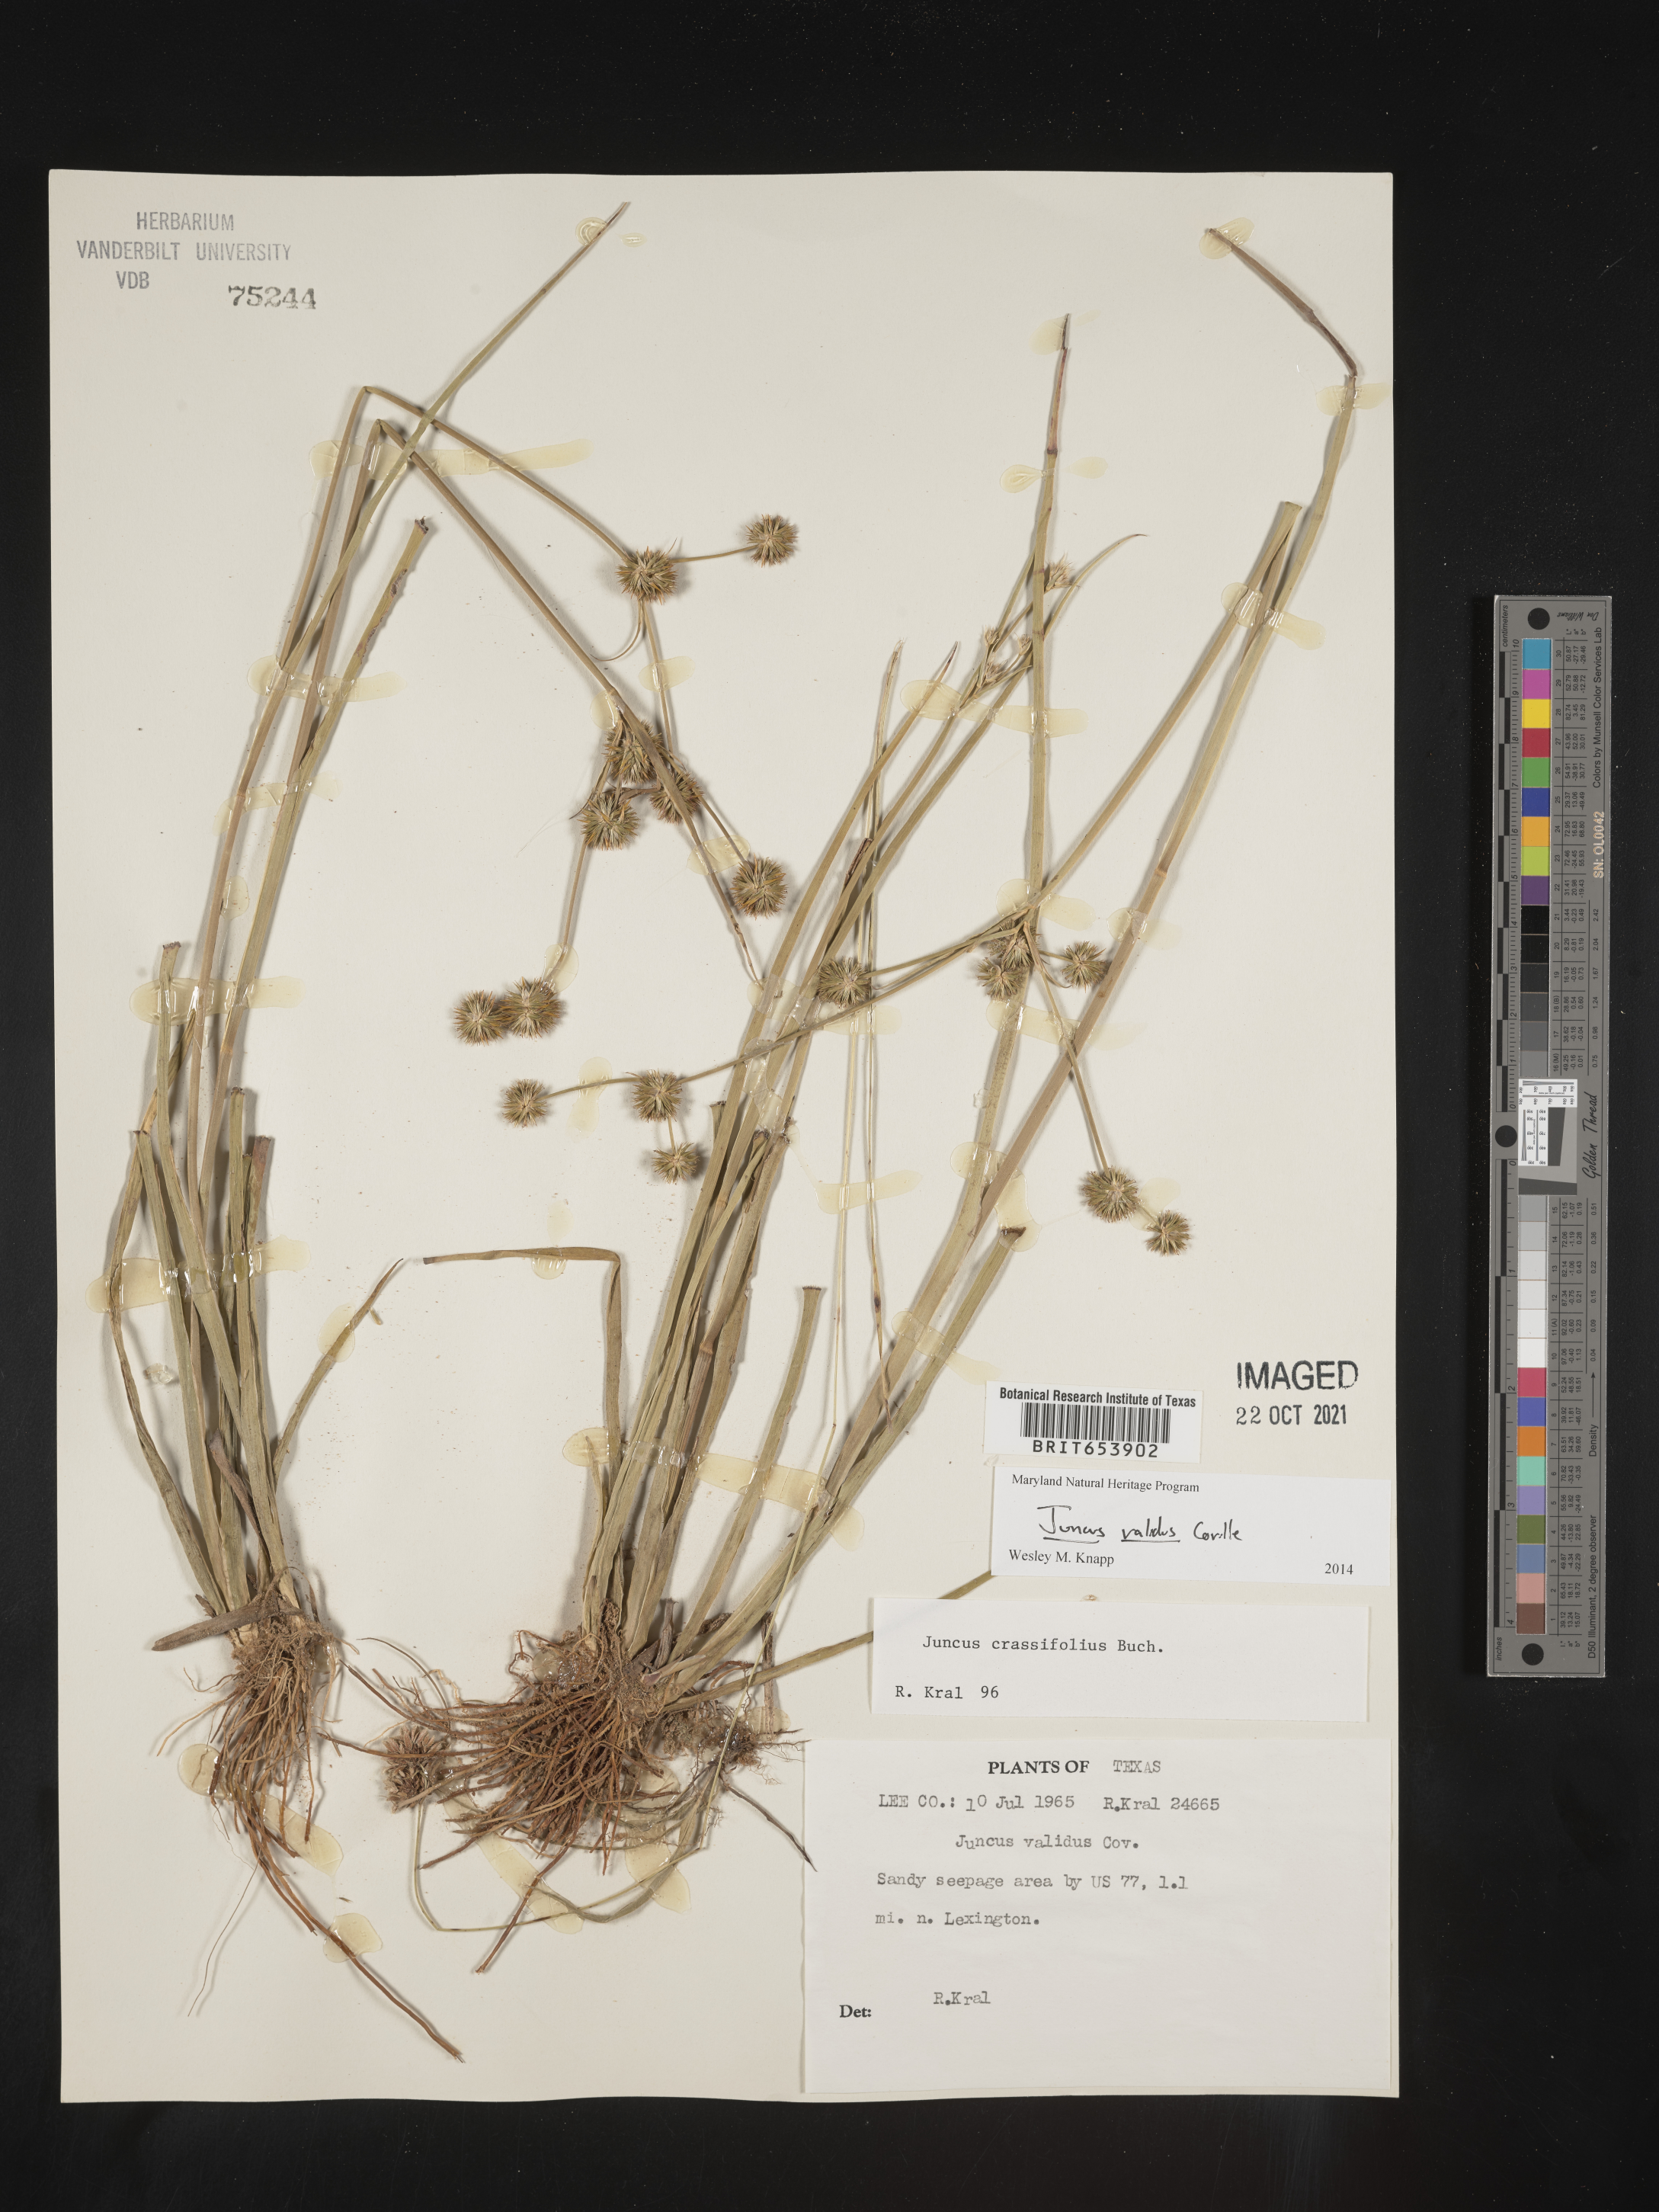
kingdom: Plantae
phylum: Tracheophyta
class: Liliopsida
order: Poales
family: Juncaceae
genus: Juncus
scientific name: Juncus validus
